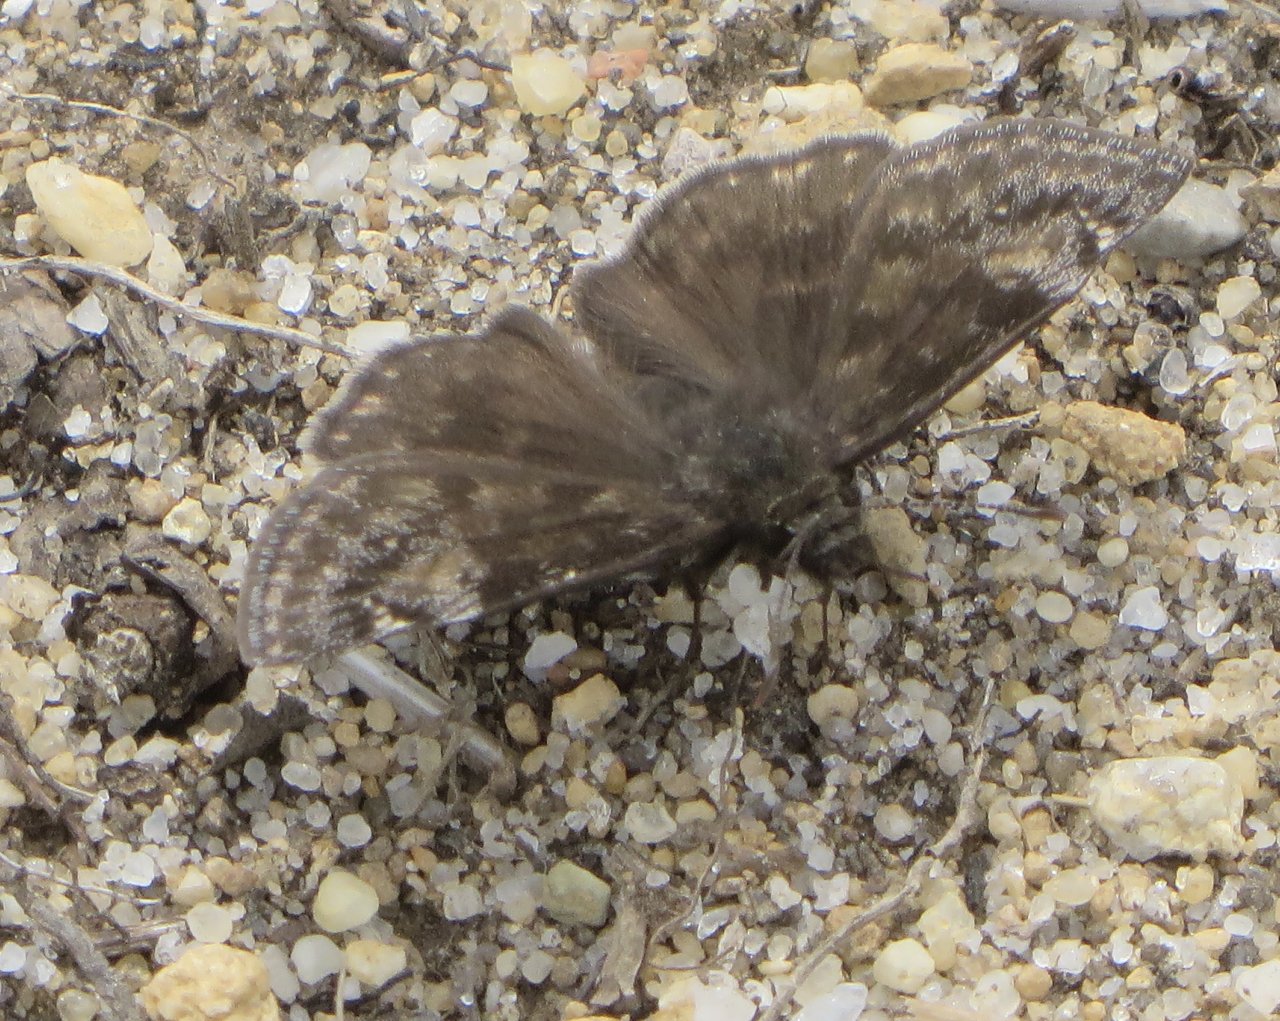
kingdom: Animalia
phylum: Arthropoda
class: Insecta
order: Lepidoptera
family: Hesperiidae
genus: Gesta
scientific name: Gesta
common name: Wild Indigo Duskywing
